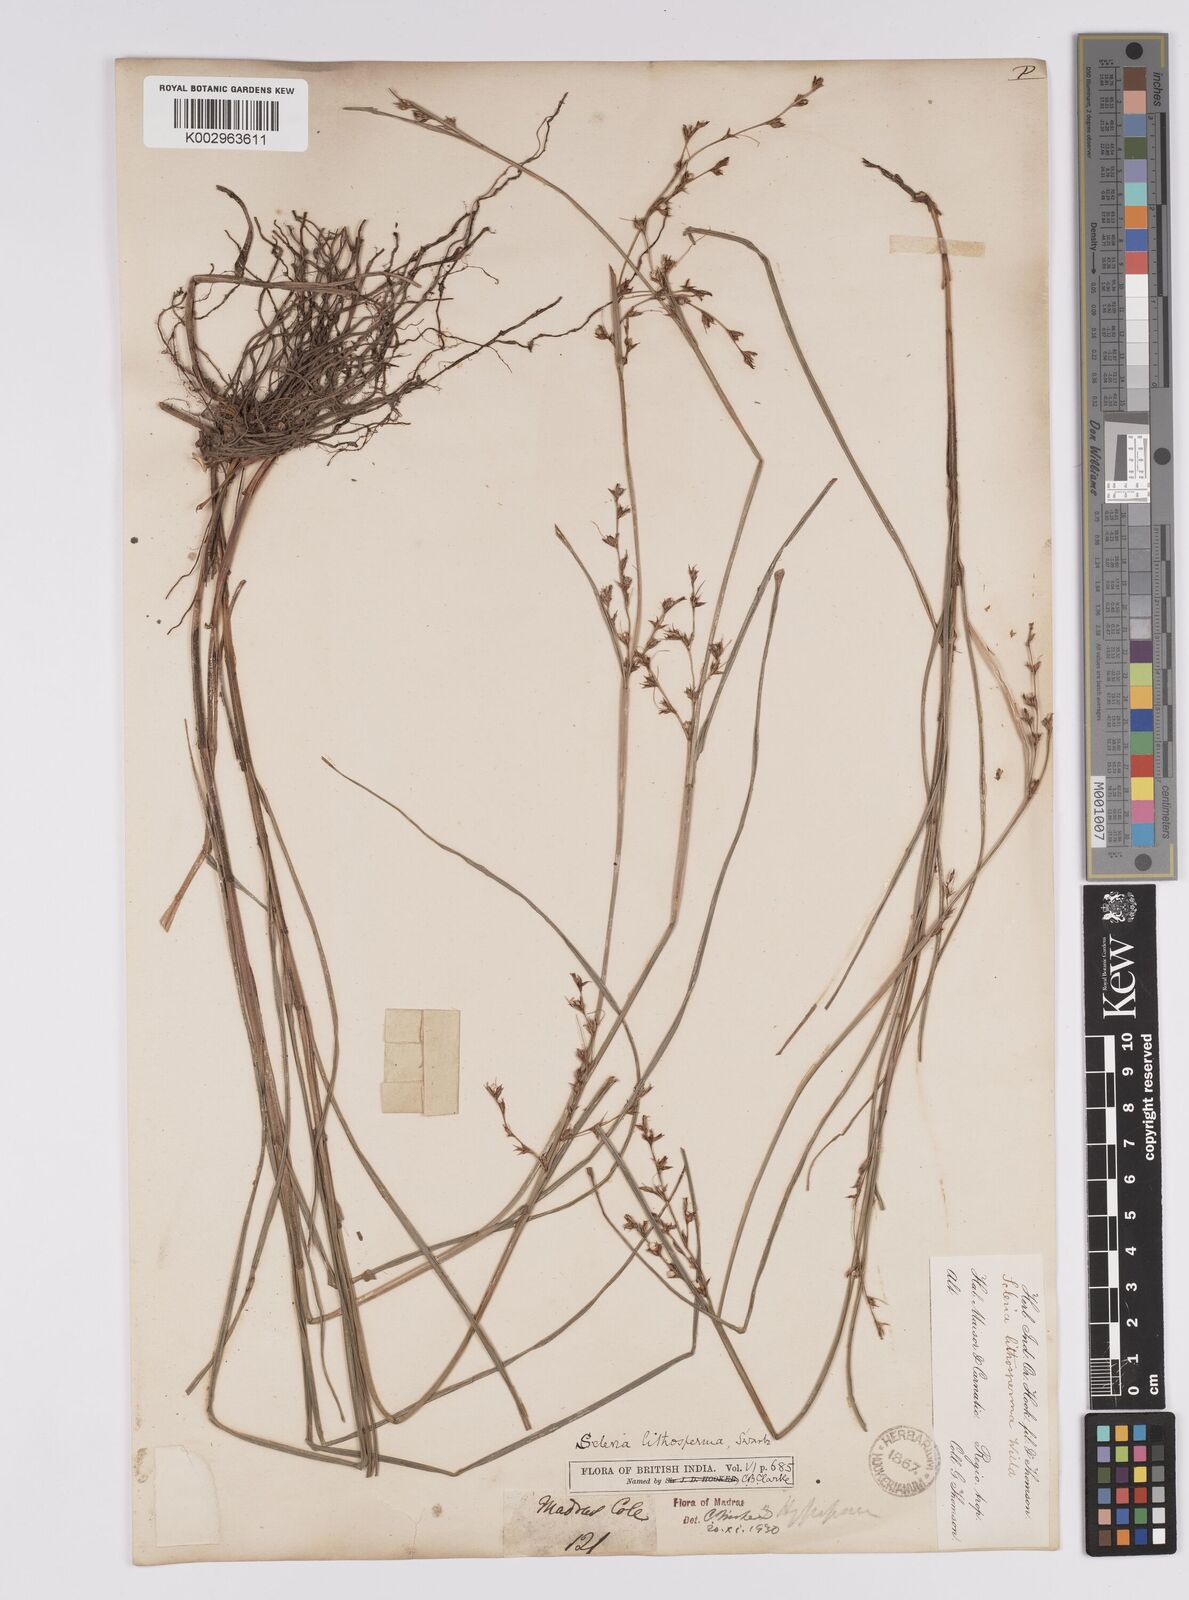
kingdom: Plantae
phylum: Tracheophyta
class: Liliopsida
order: Poales
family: Cyperaceae
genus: Scleria
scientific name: Scleria lithosperma
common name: Florida keys nut-rush
